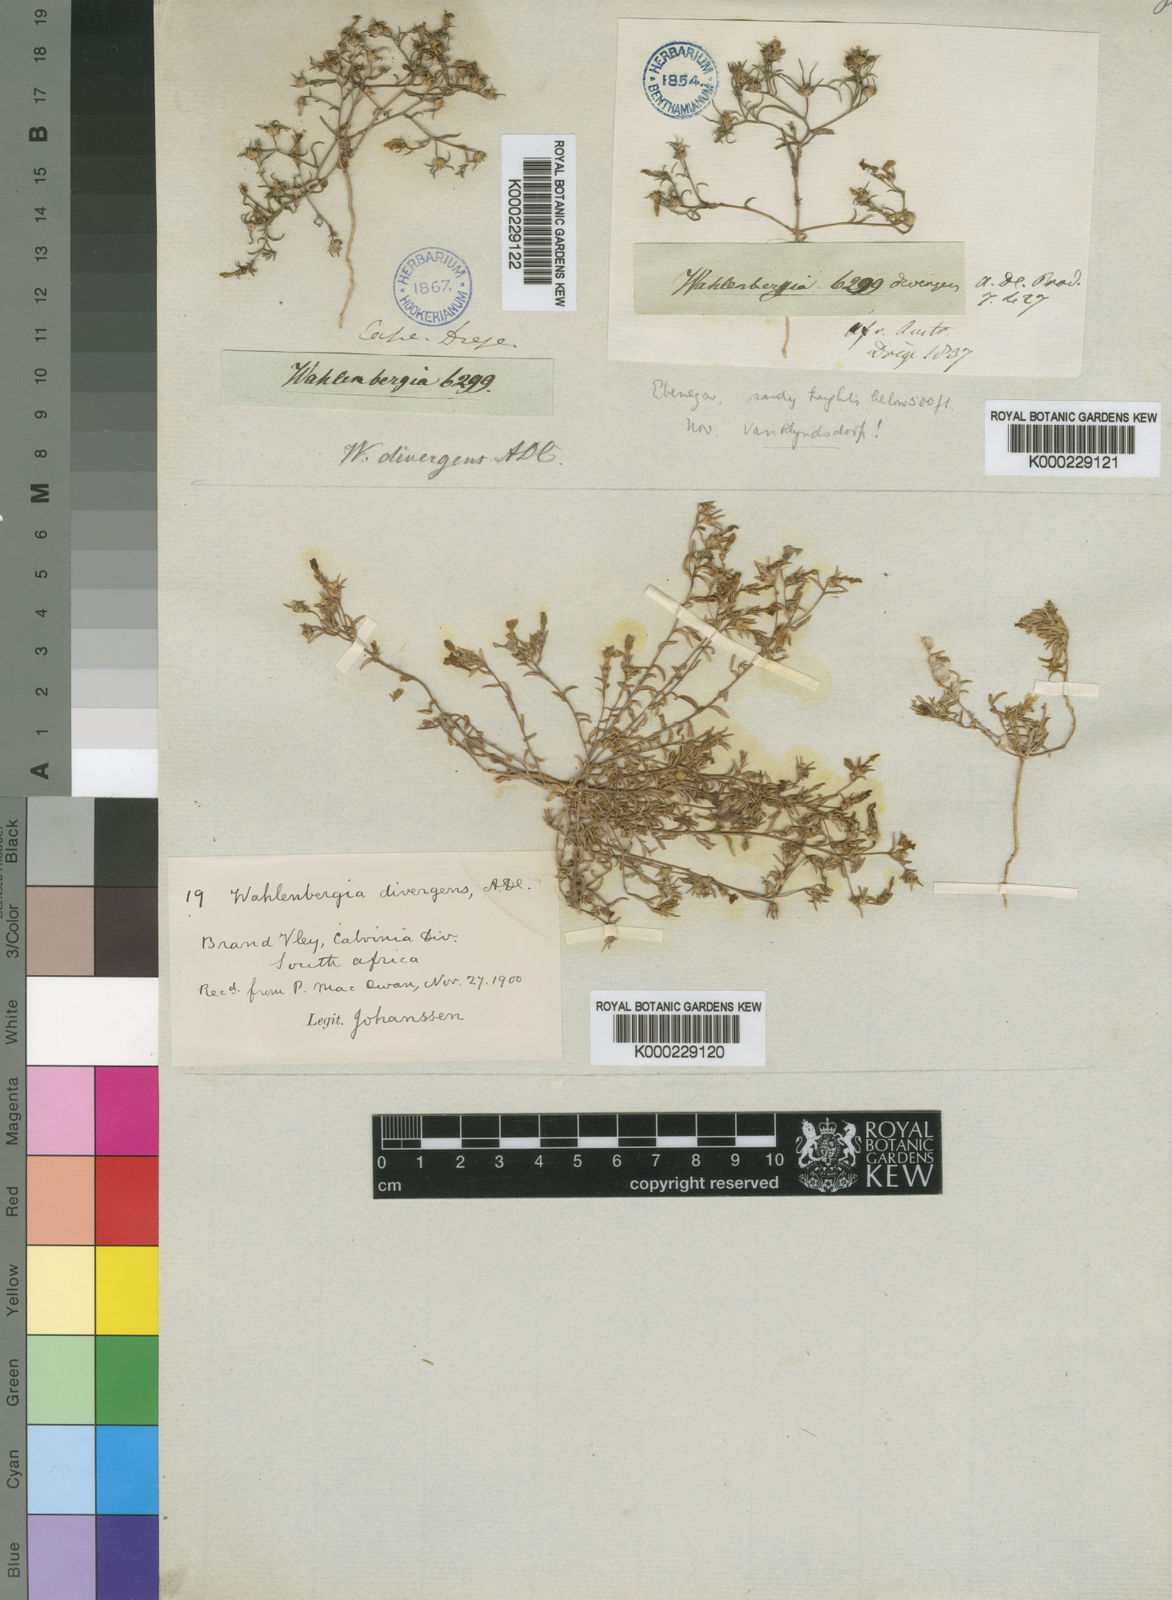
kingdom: Plantae
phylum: Tracheophyta
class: Magnoliopsida
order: Asterales
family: Campanulaceae
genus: Wahlenbergia
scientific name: Wahlenbergia divergens
